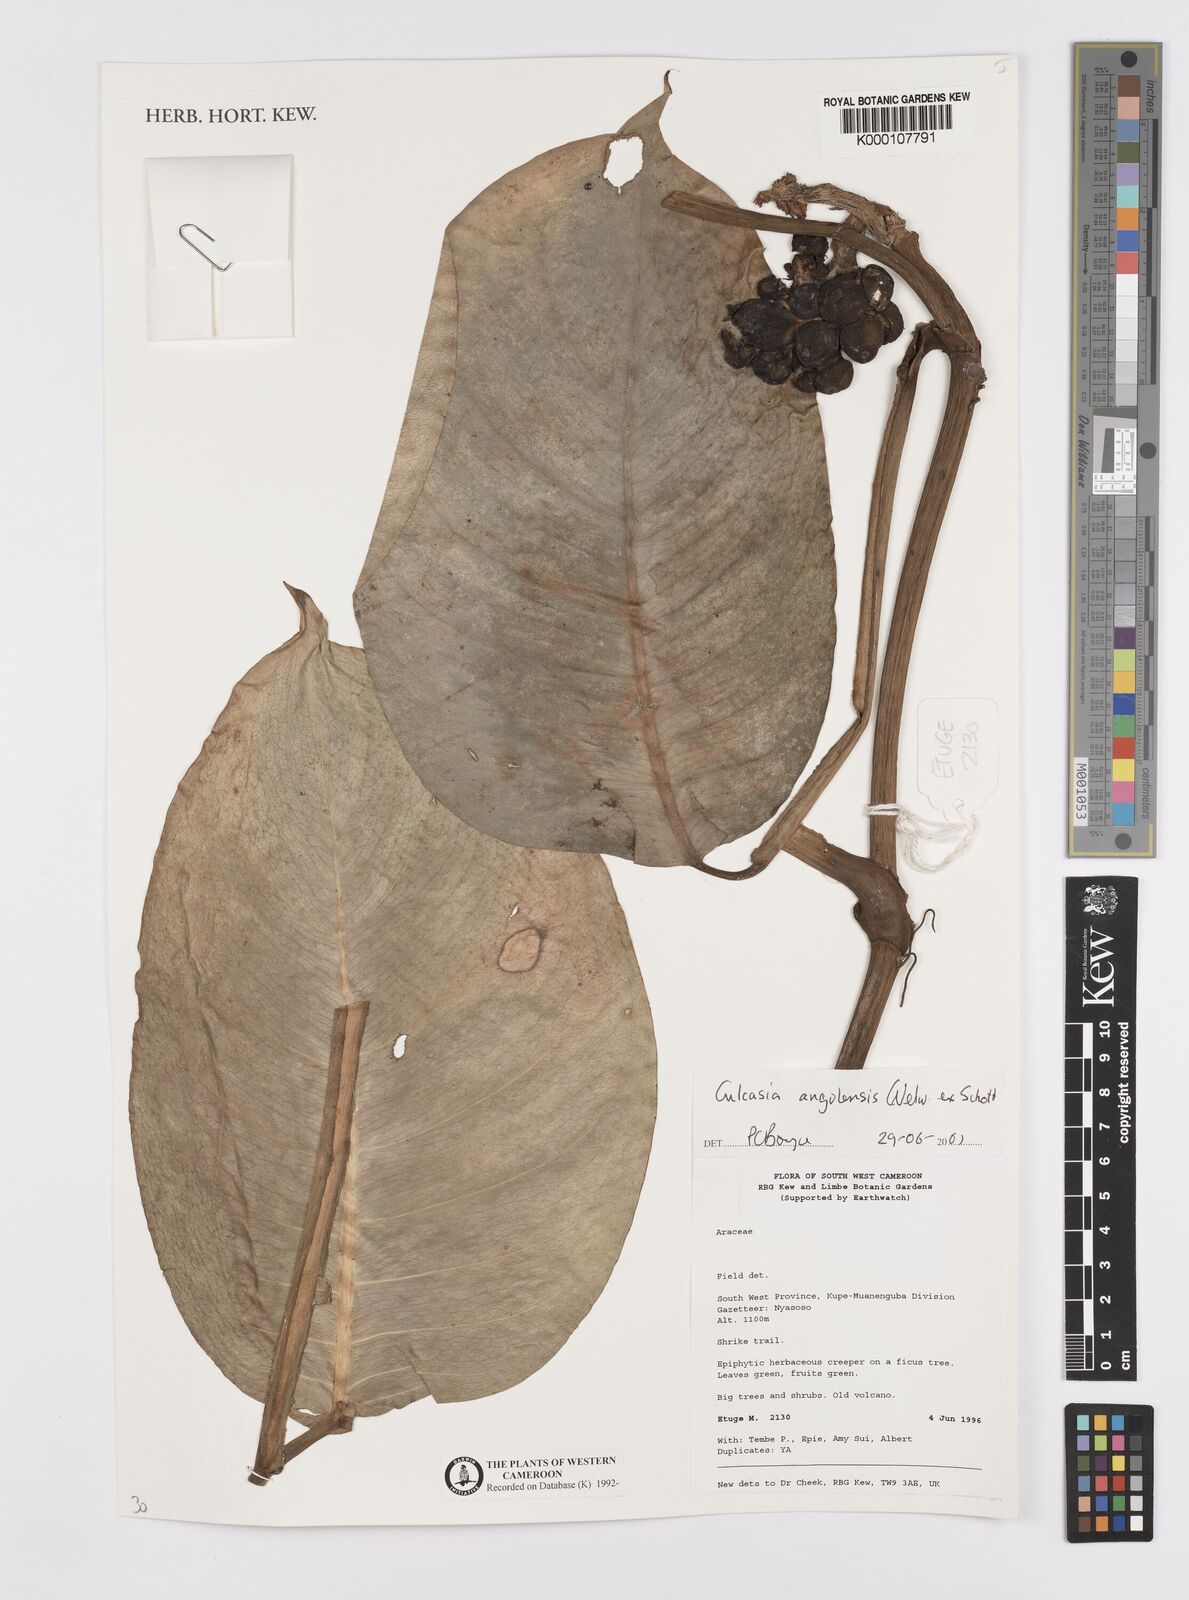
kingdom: Plantae
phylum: Tracheophyta
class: Liliopsida
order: Alismatales
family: Araceae
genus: Culcasia
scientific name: Culcasia angolensis
